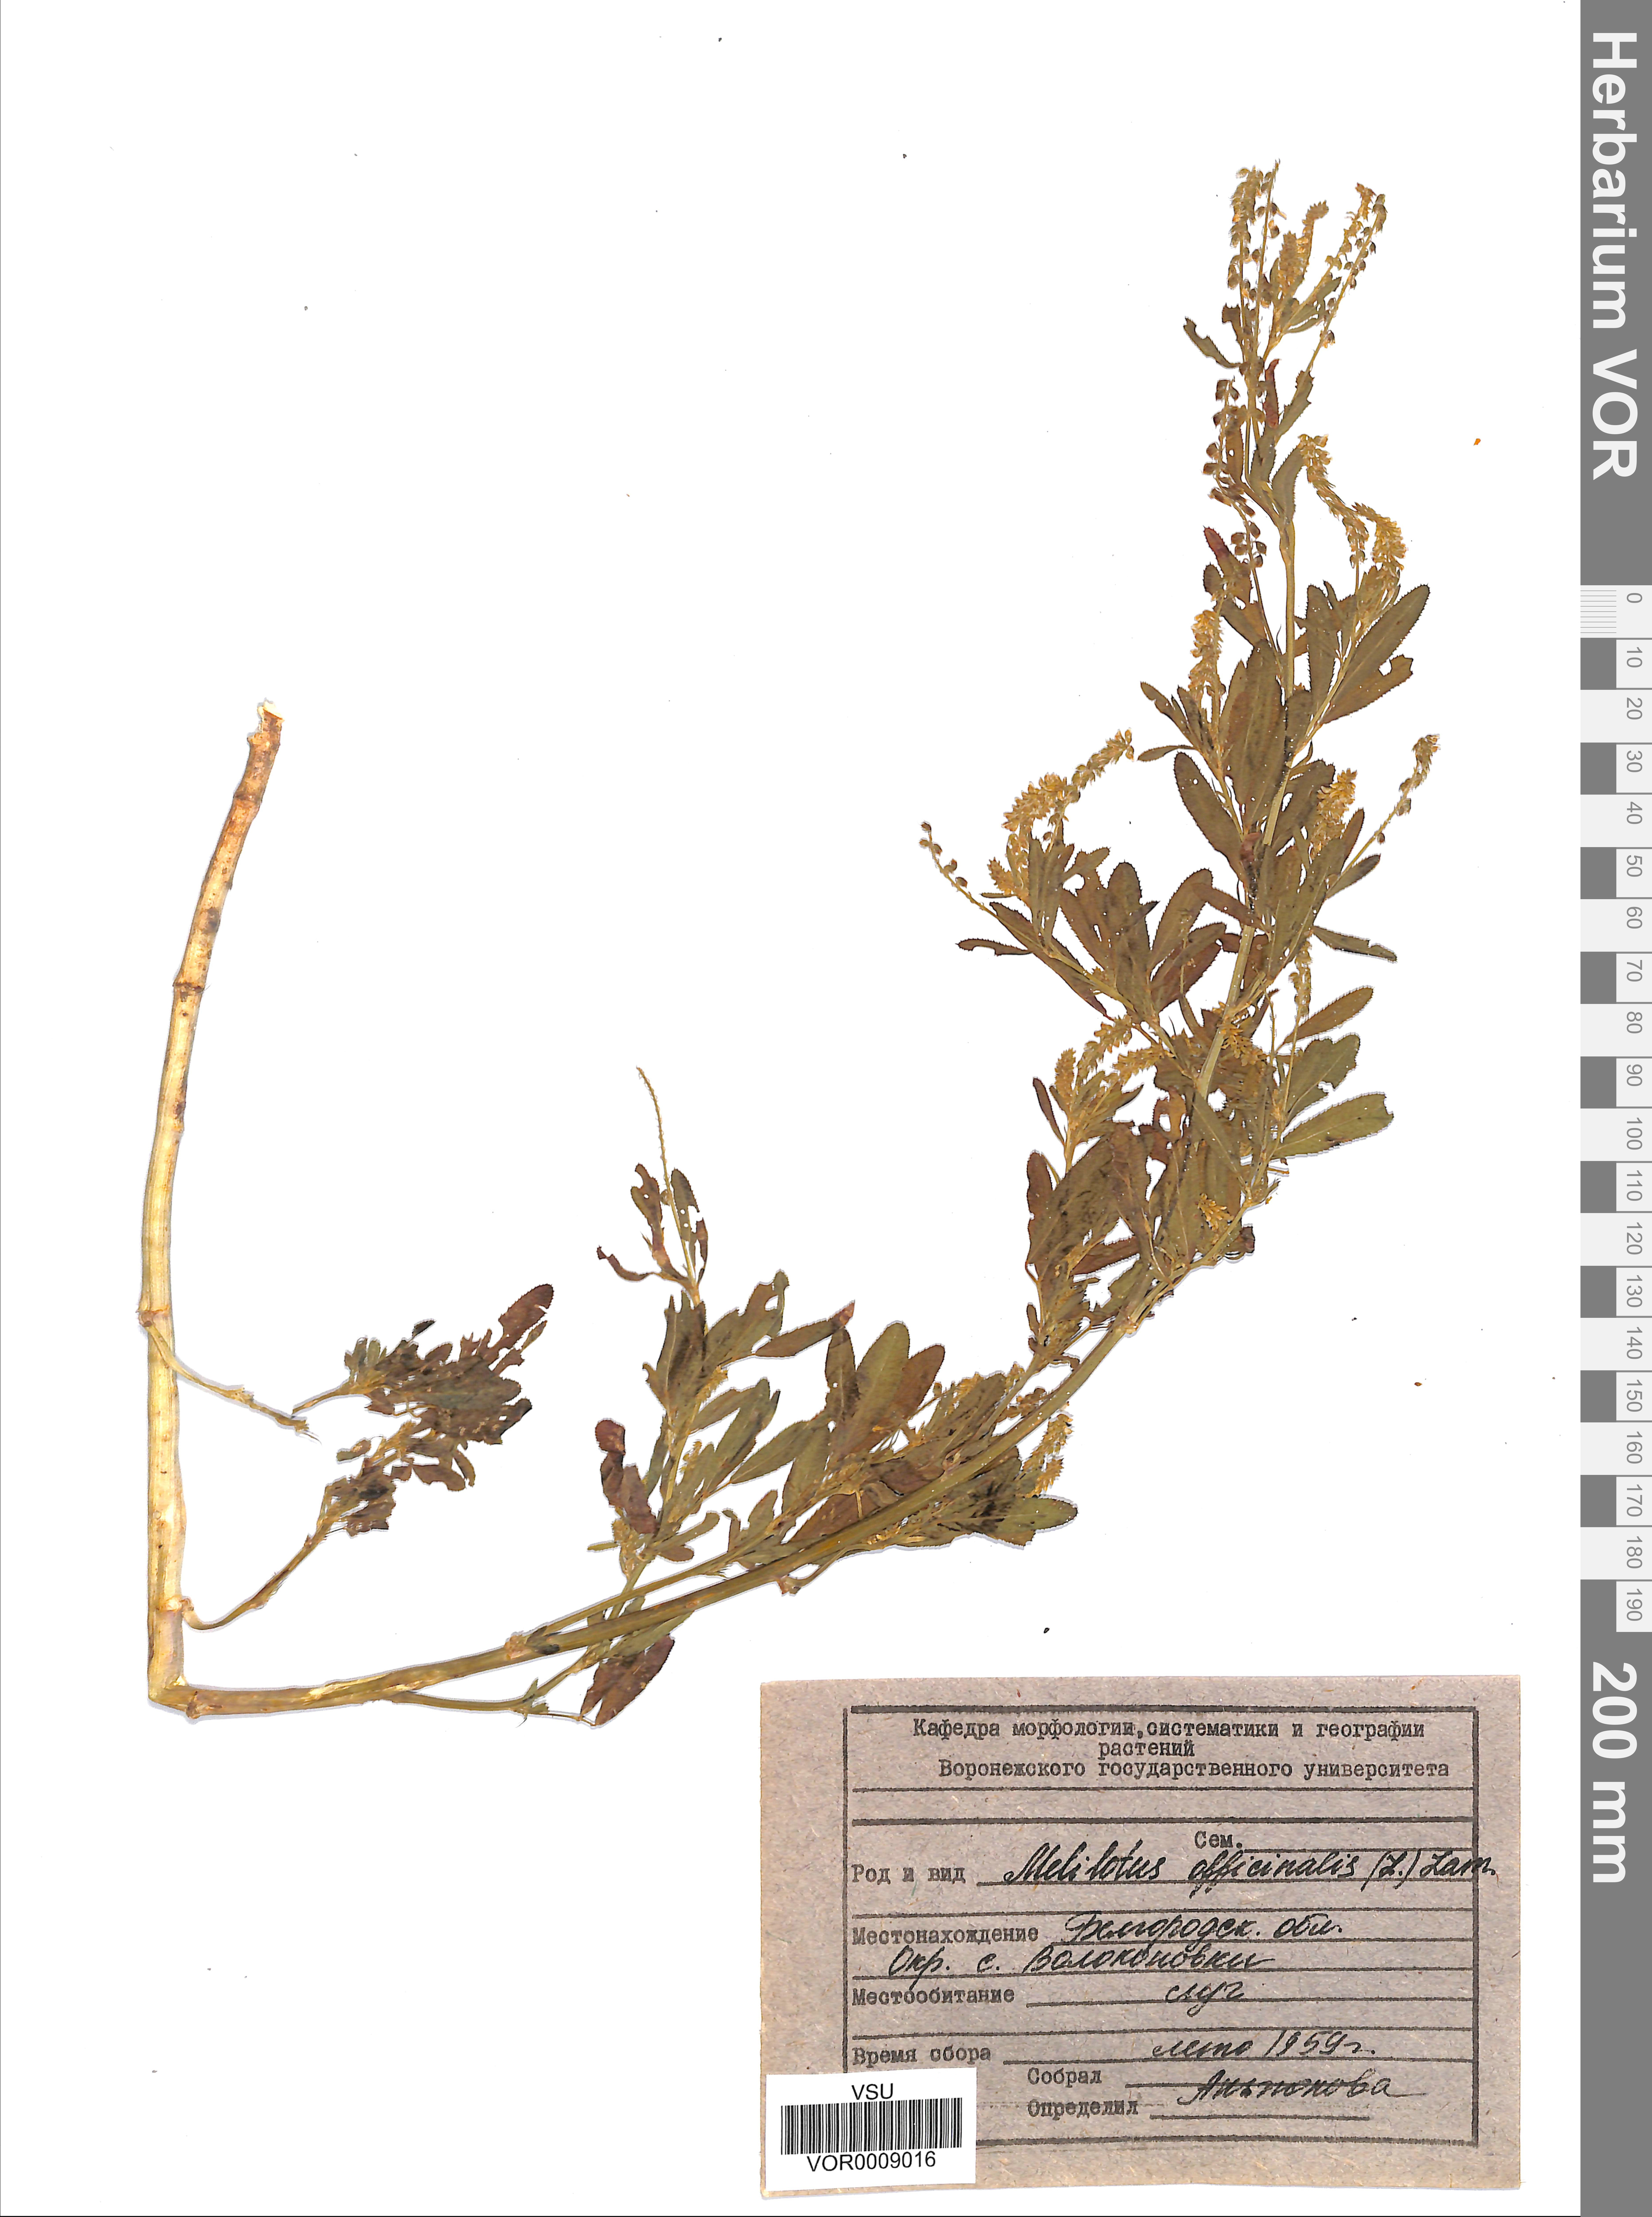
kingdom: Plantae
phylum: Tracheophyta
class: Magnoliopsida
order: Fabales
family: Fabaceae
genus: Melilotus
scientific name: Melilotus officinalis
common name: Sweetclover
